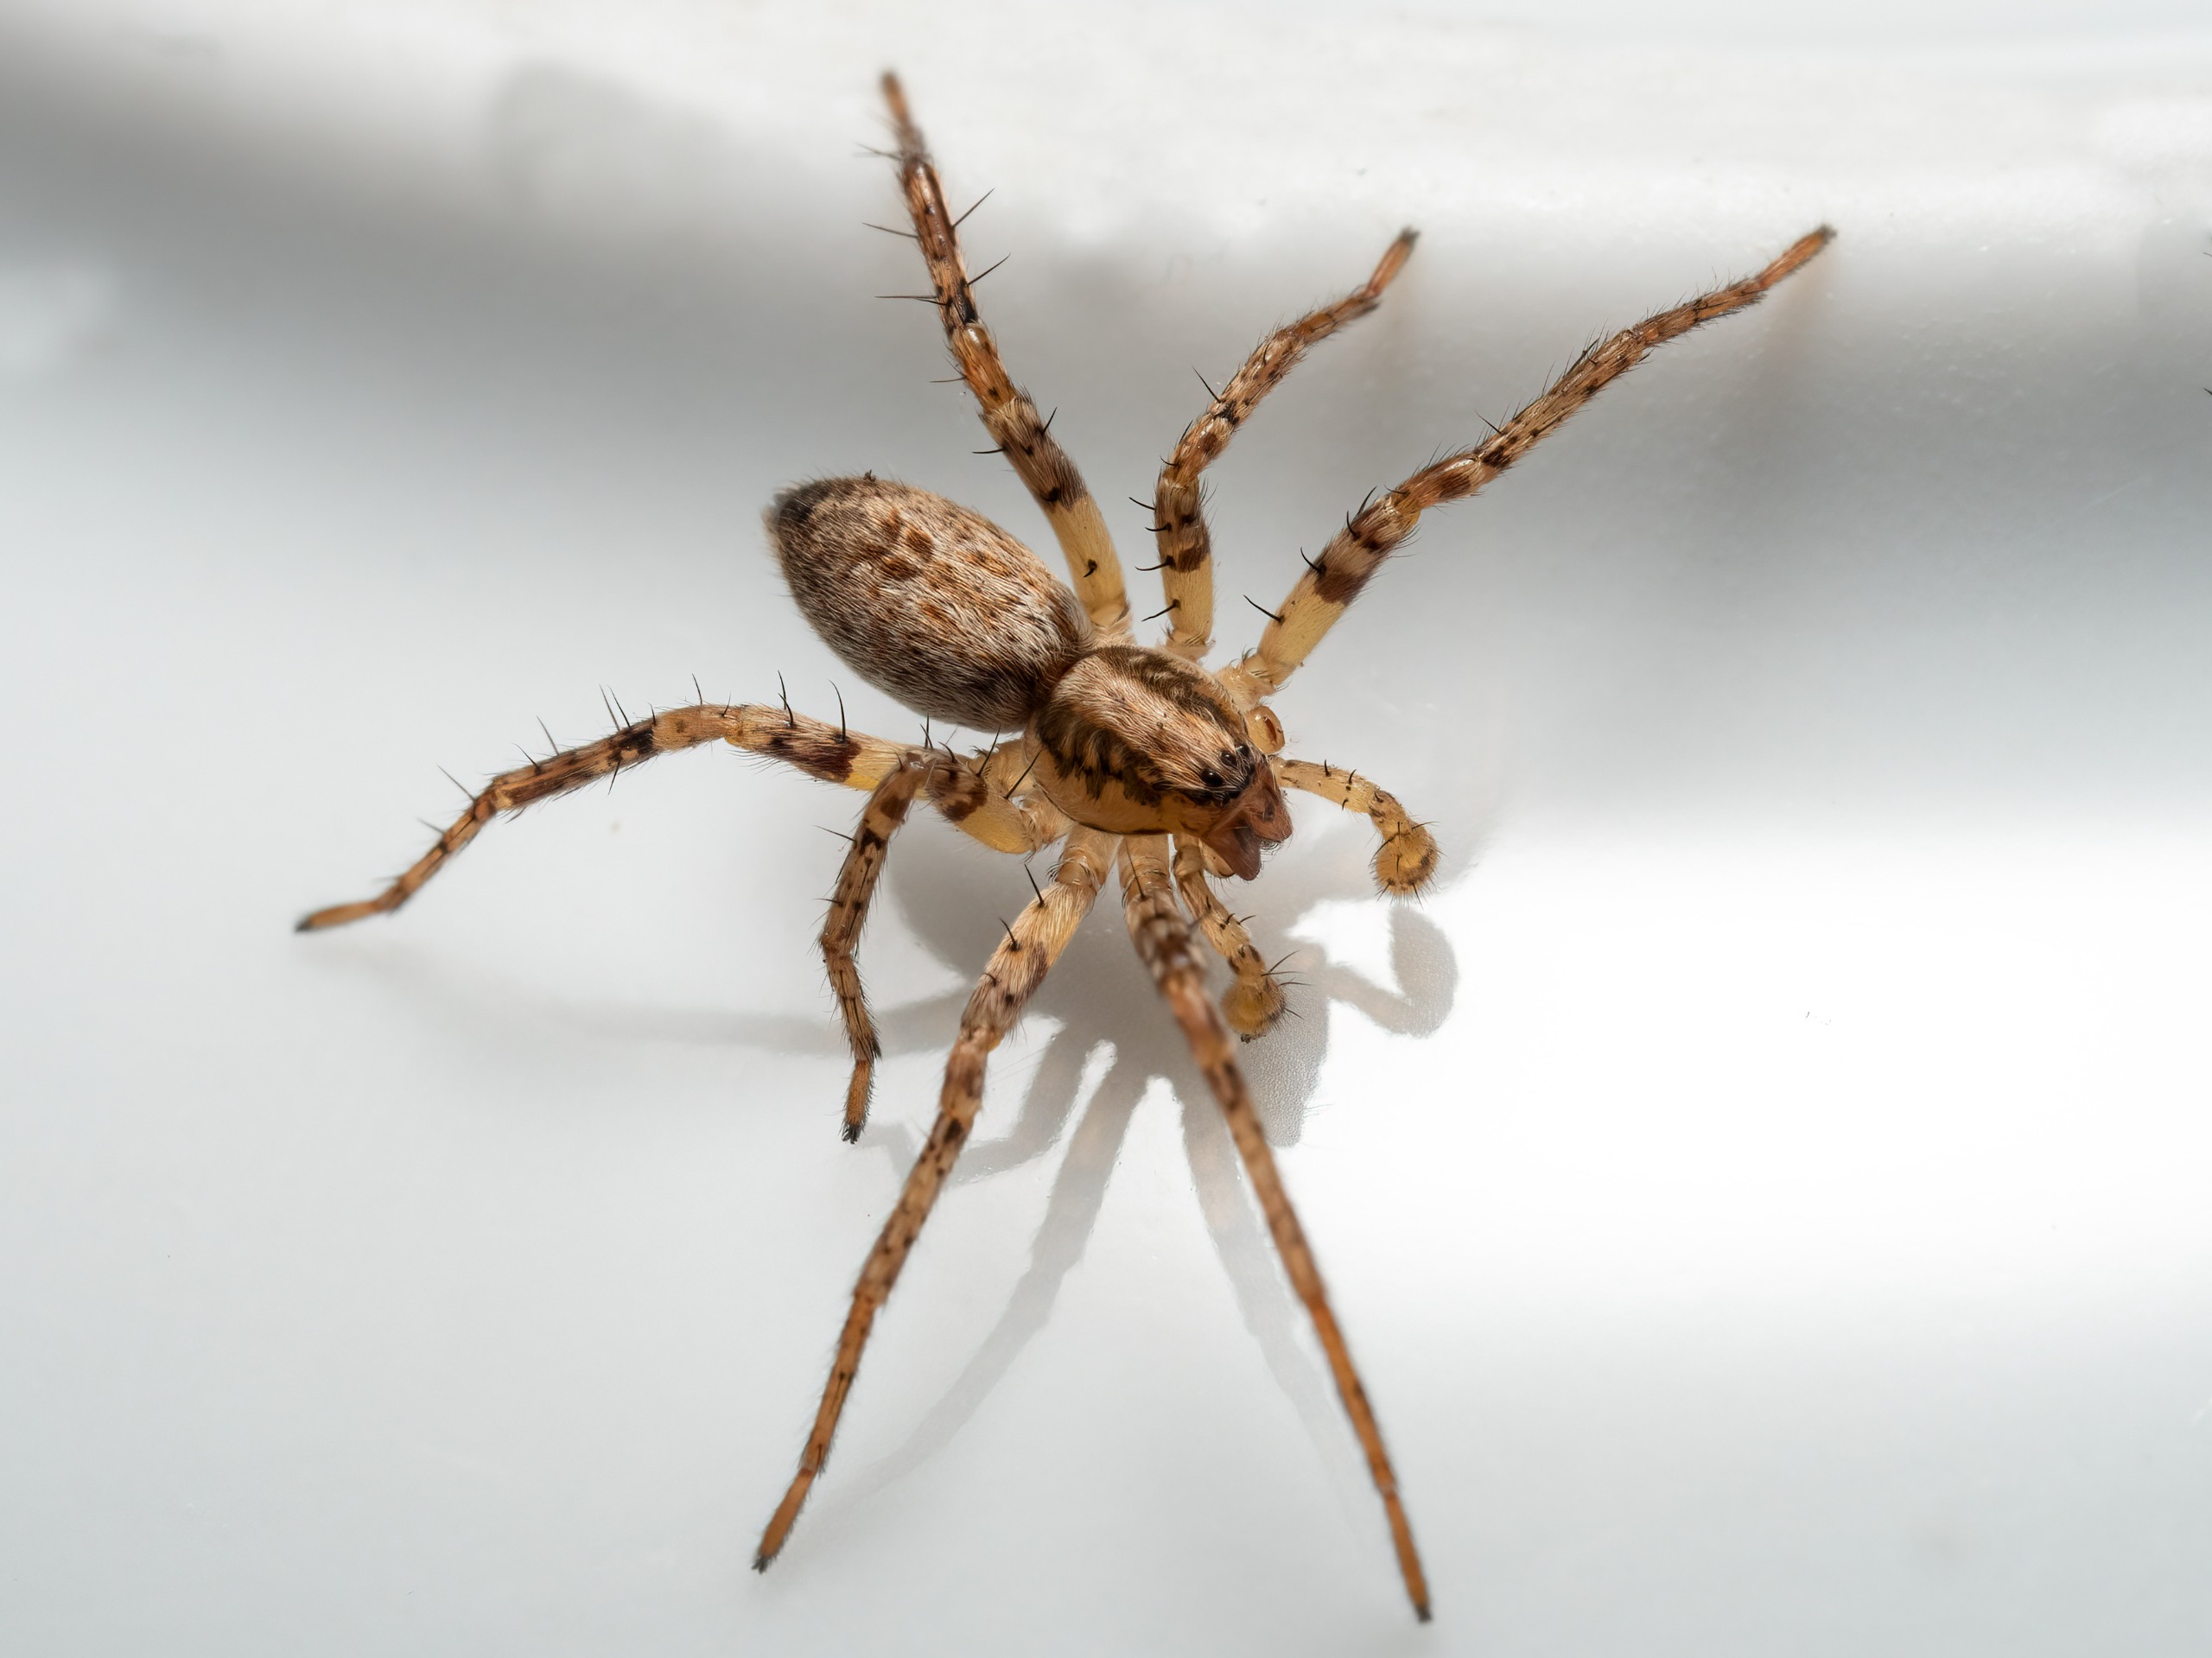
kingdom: Animalia
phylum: Arthropoda
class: Arachnida
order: Araneae
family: Anyphaenidae
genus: Anyphaena
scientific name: Anyphaena accentuata
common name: Summeedderkop
